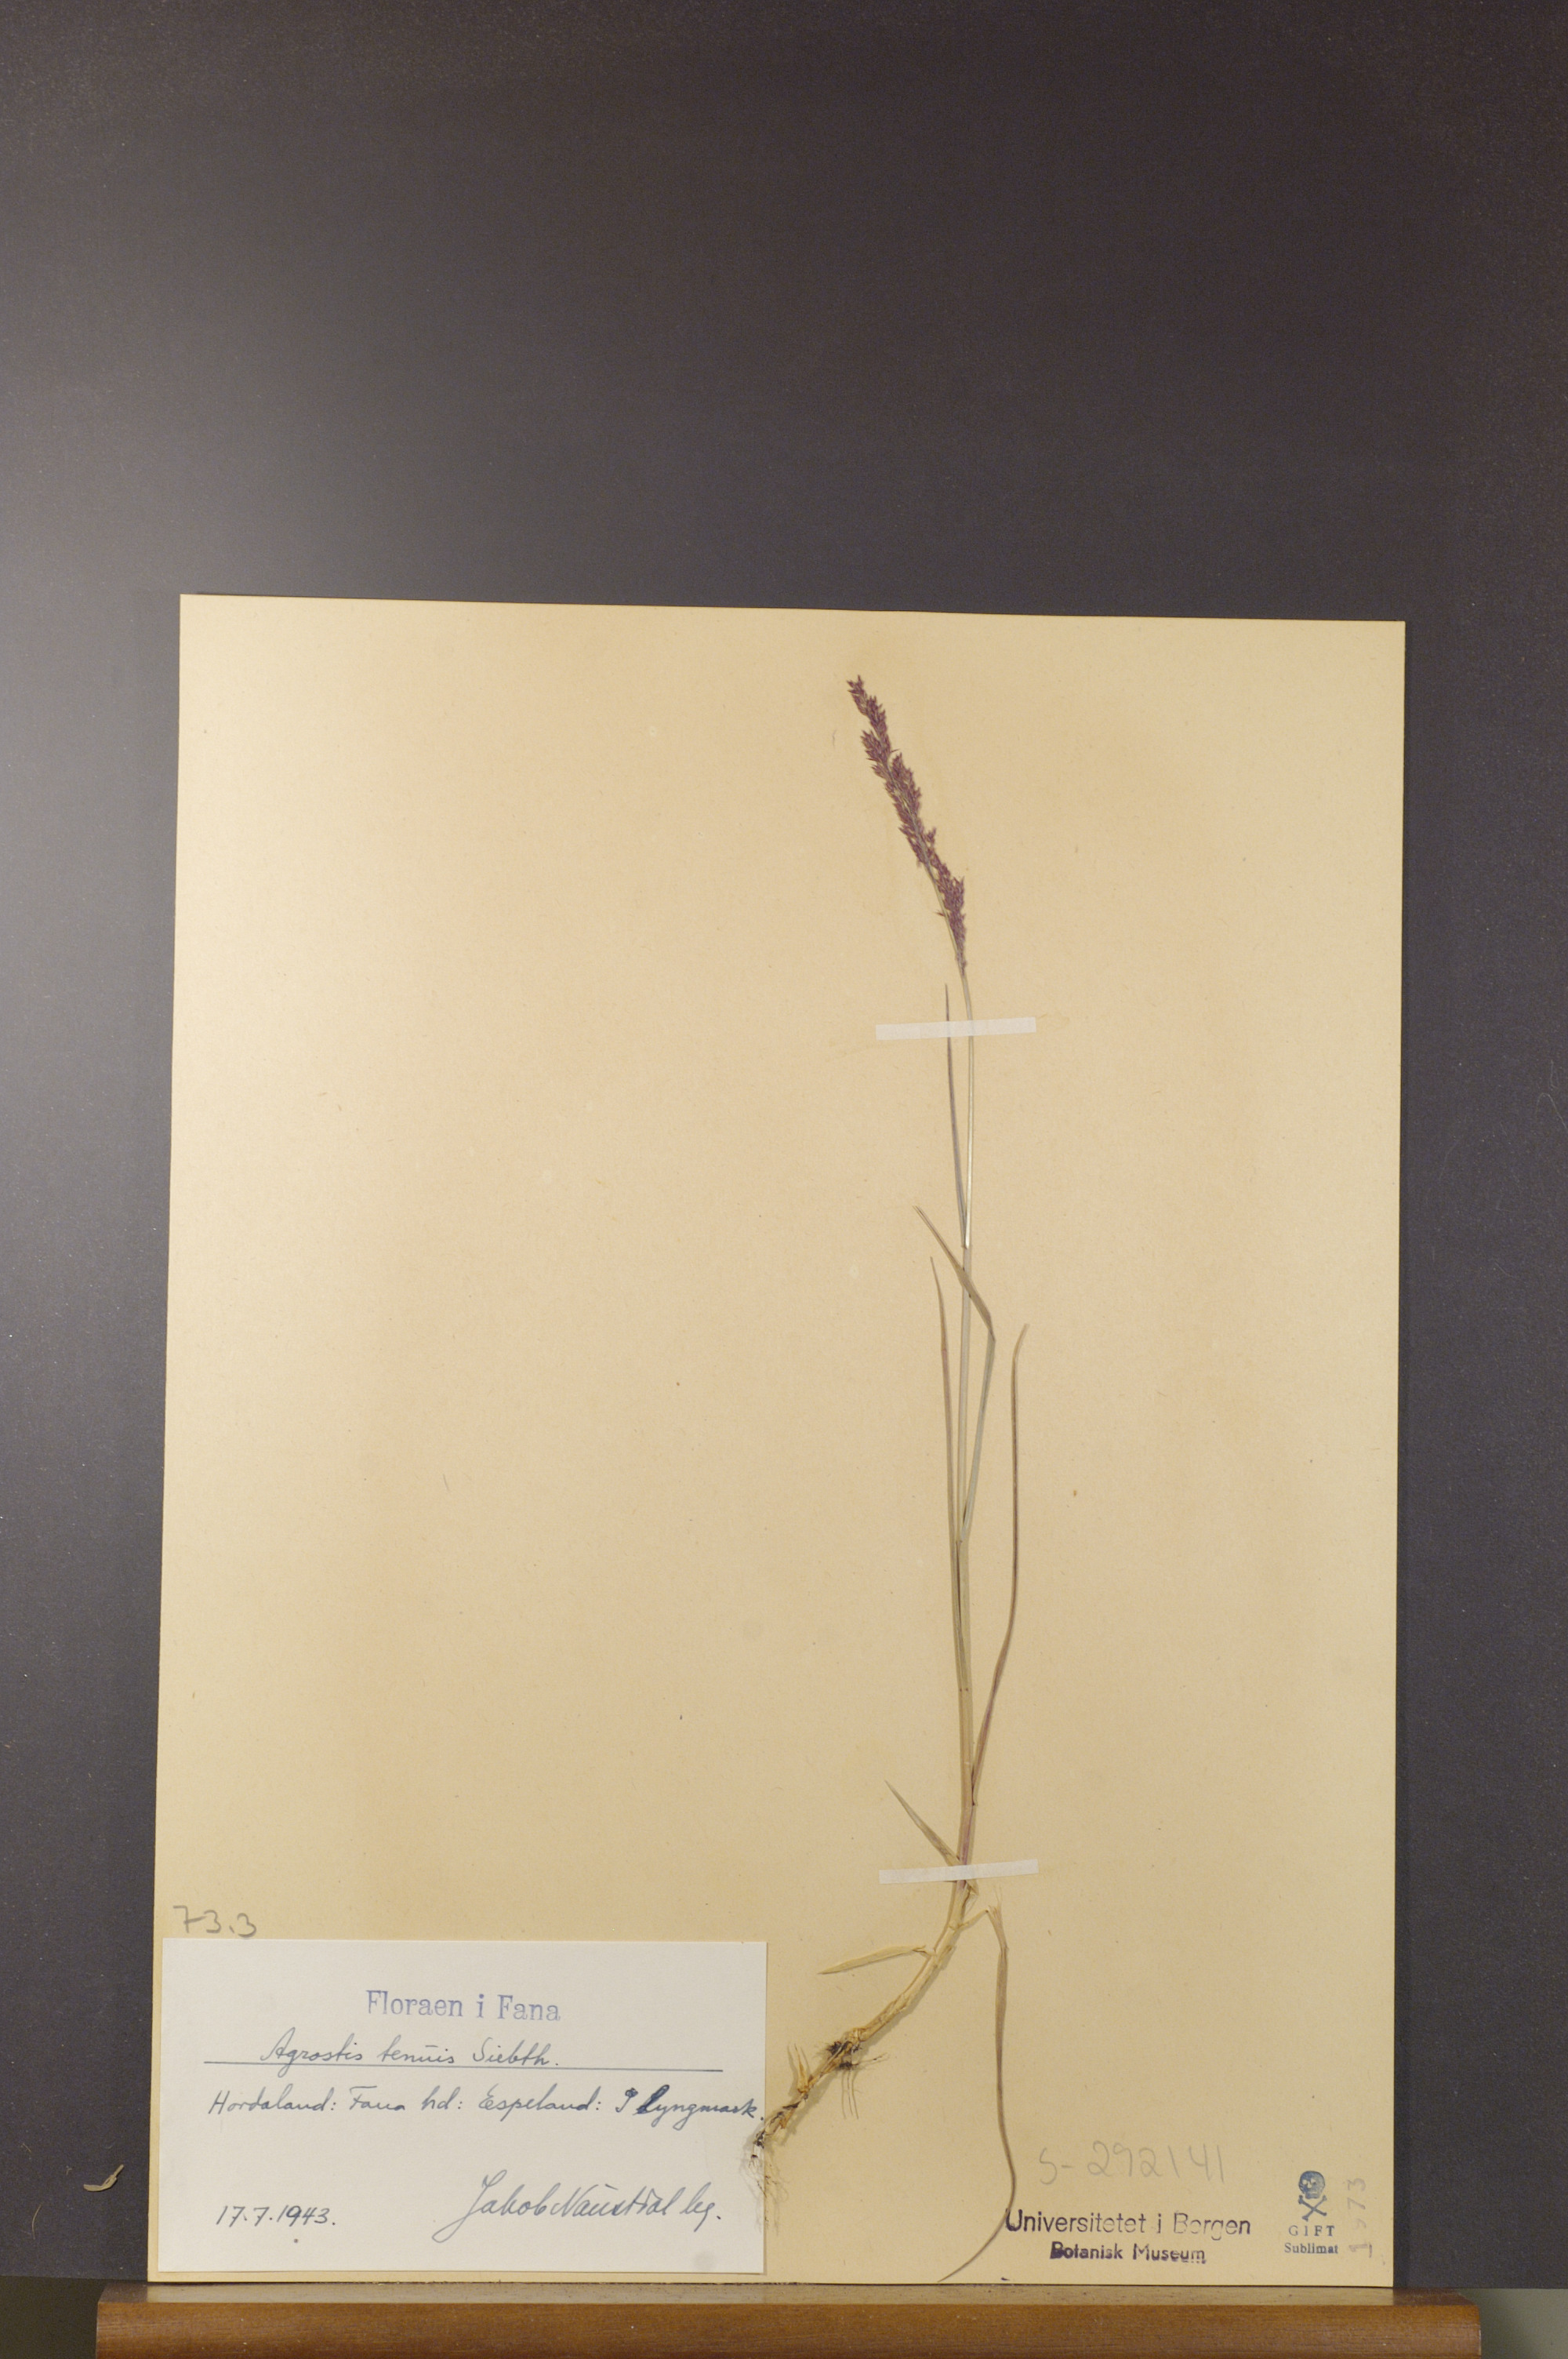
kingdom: Plantae
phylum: Tracheophyta
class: Liliopsida
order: Poales
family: Poaceae
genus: Agrostis
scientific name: Agrostis capillaris
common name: Colonial bentgrass
